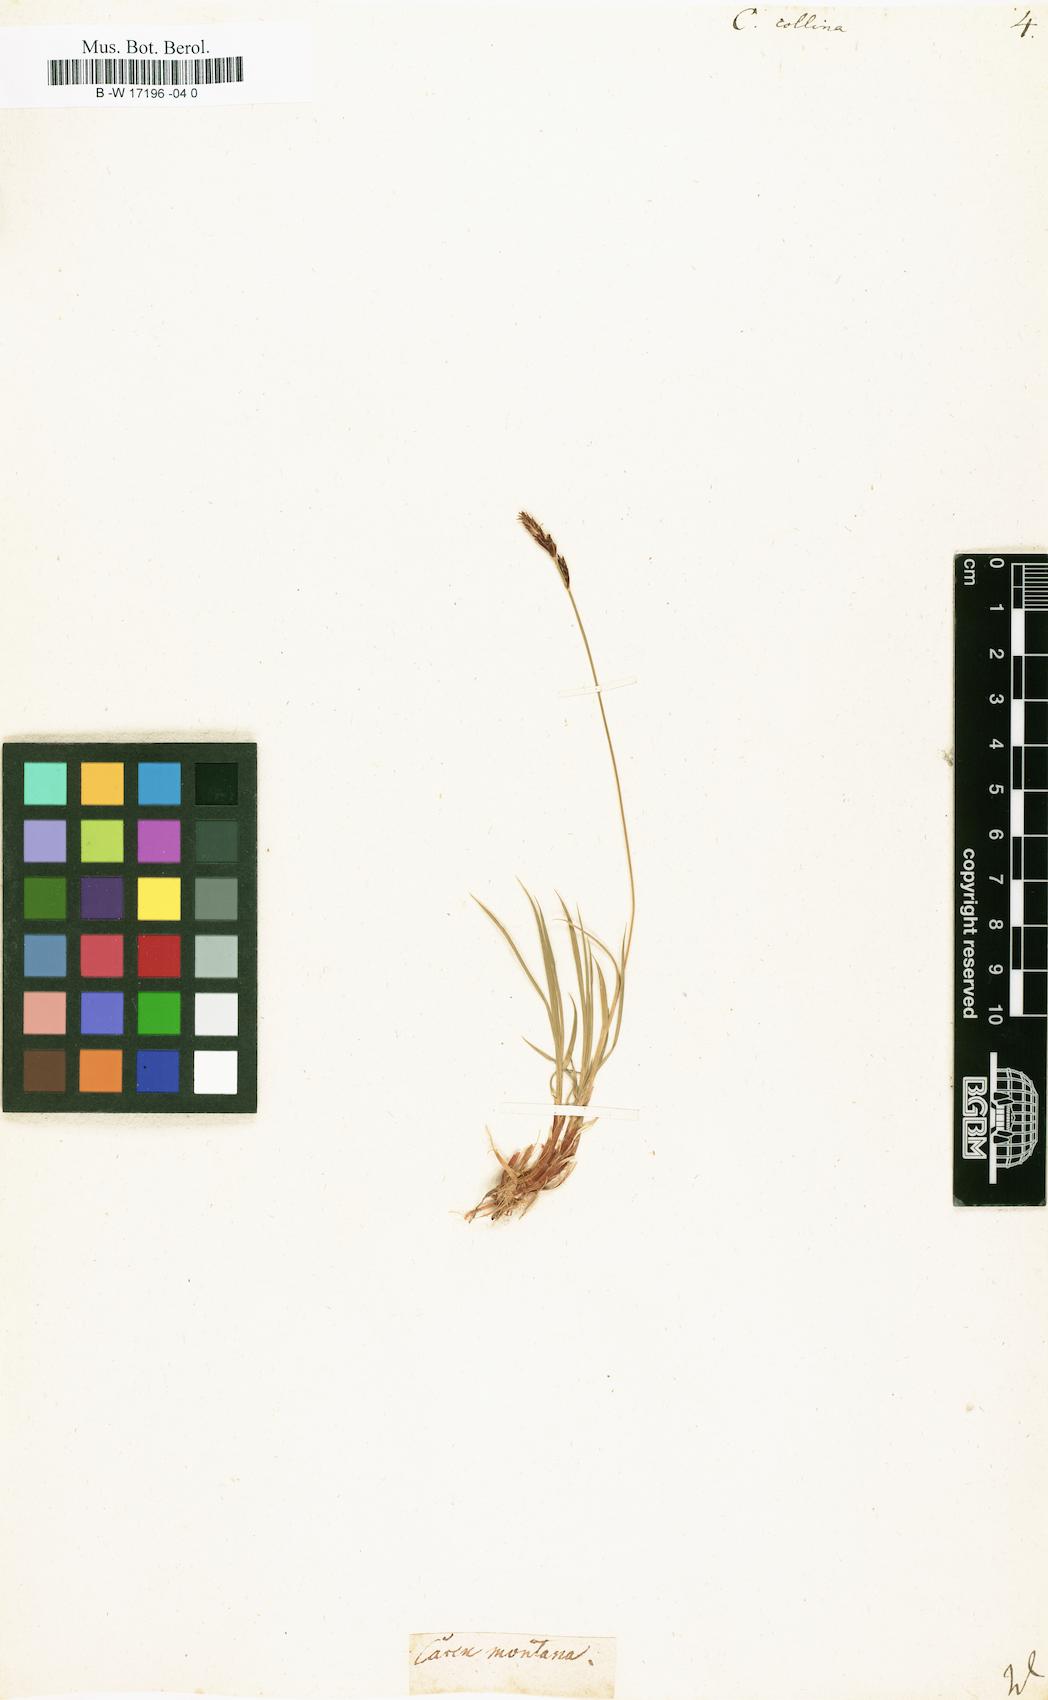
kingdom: Plantae
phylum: Tracheophyta
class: Liliopsida
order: Poales
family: Cyperaceae
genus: Carex
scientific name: Carex montana
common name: Soft-leaved sedge
